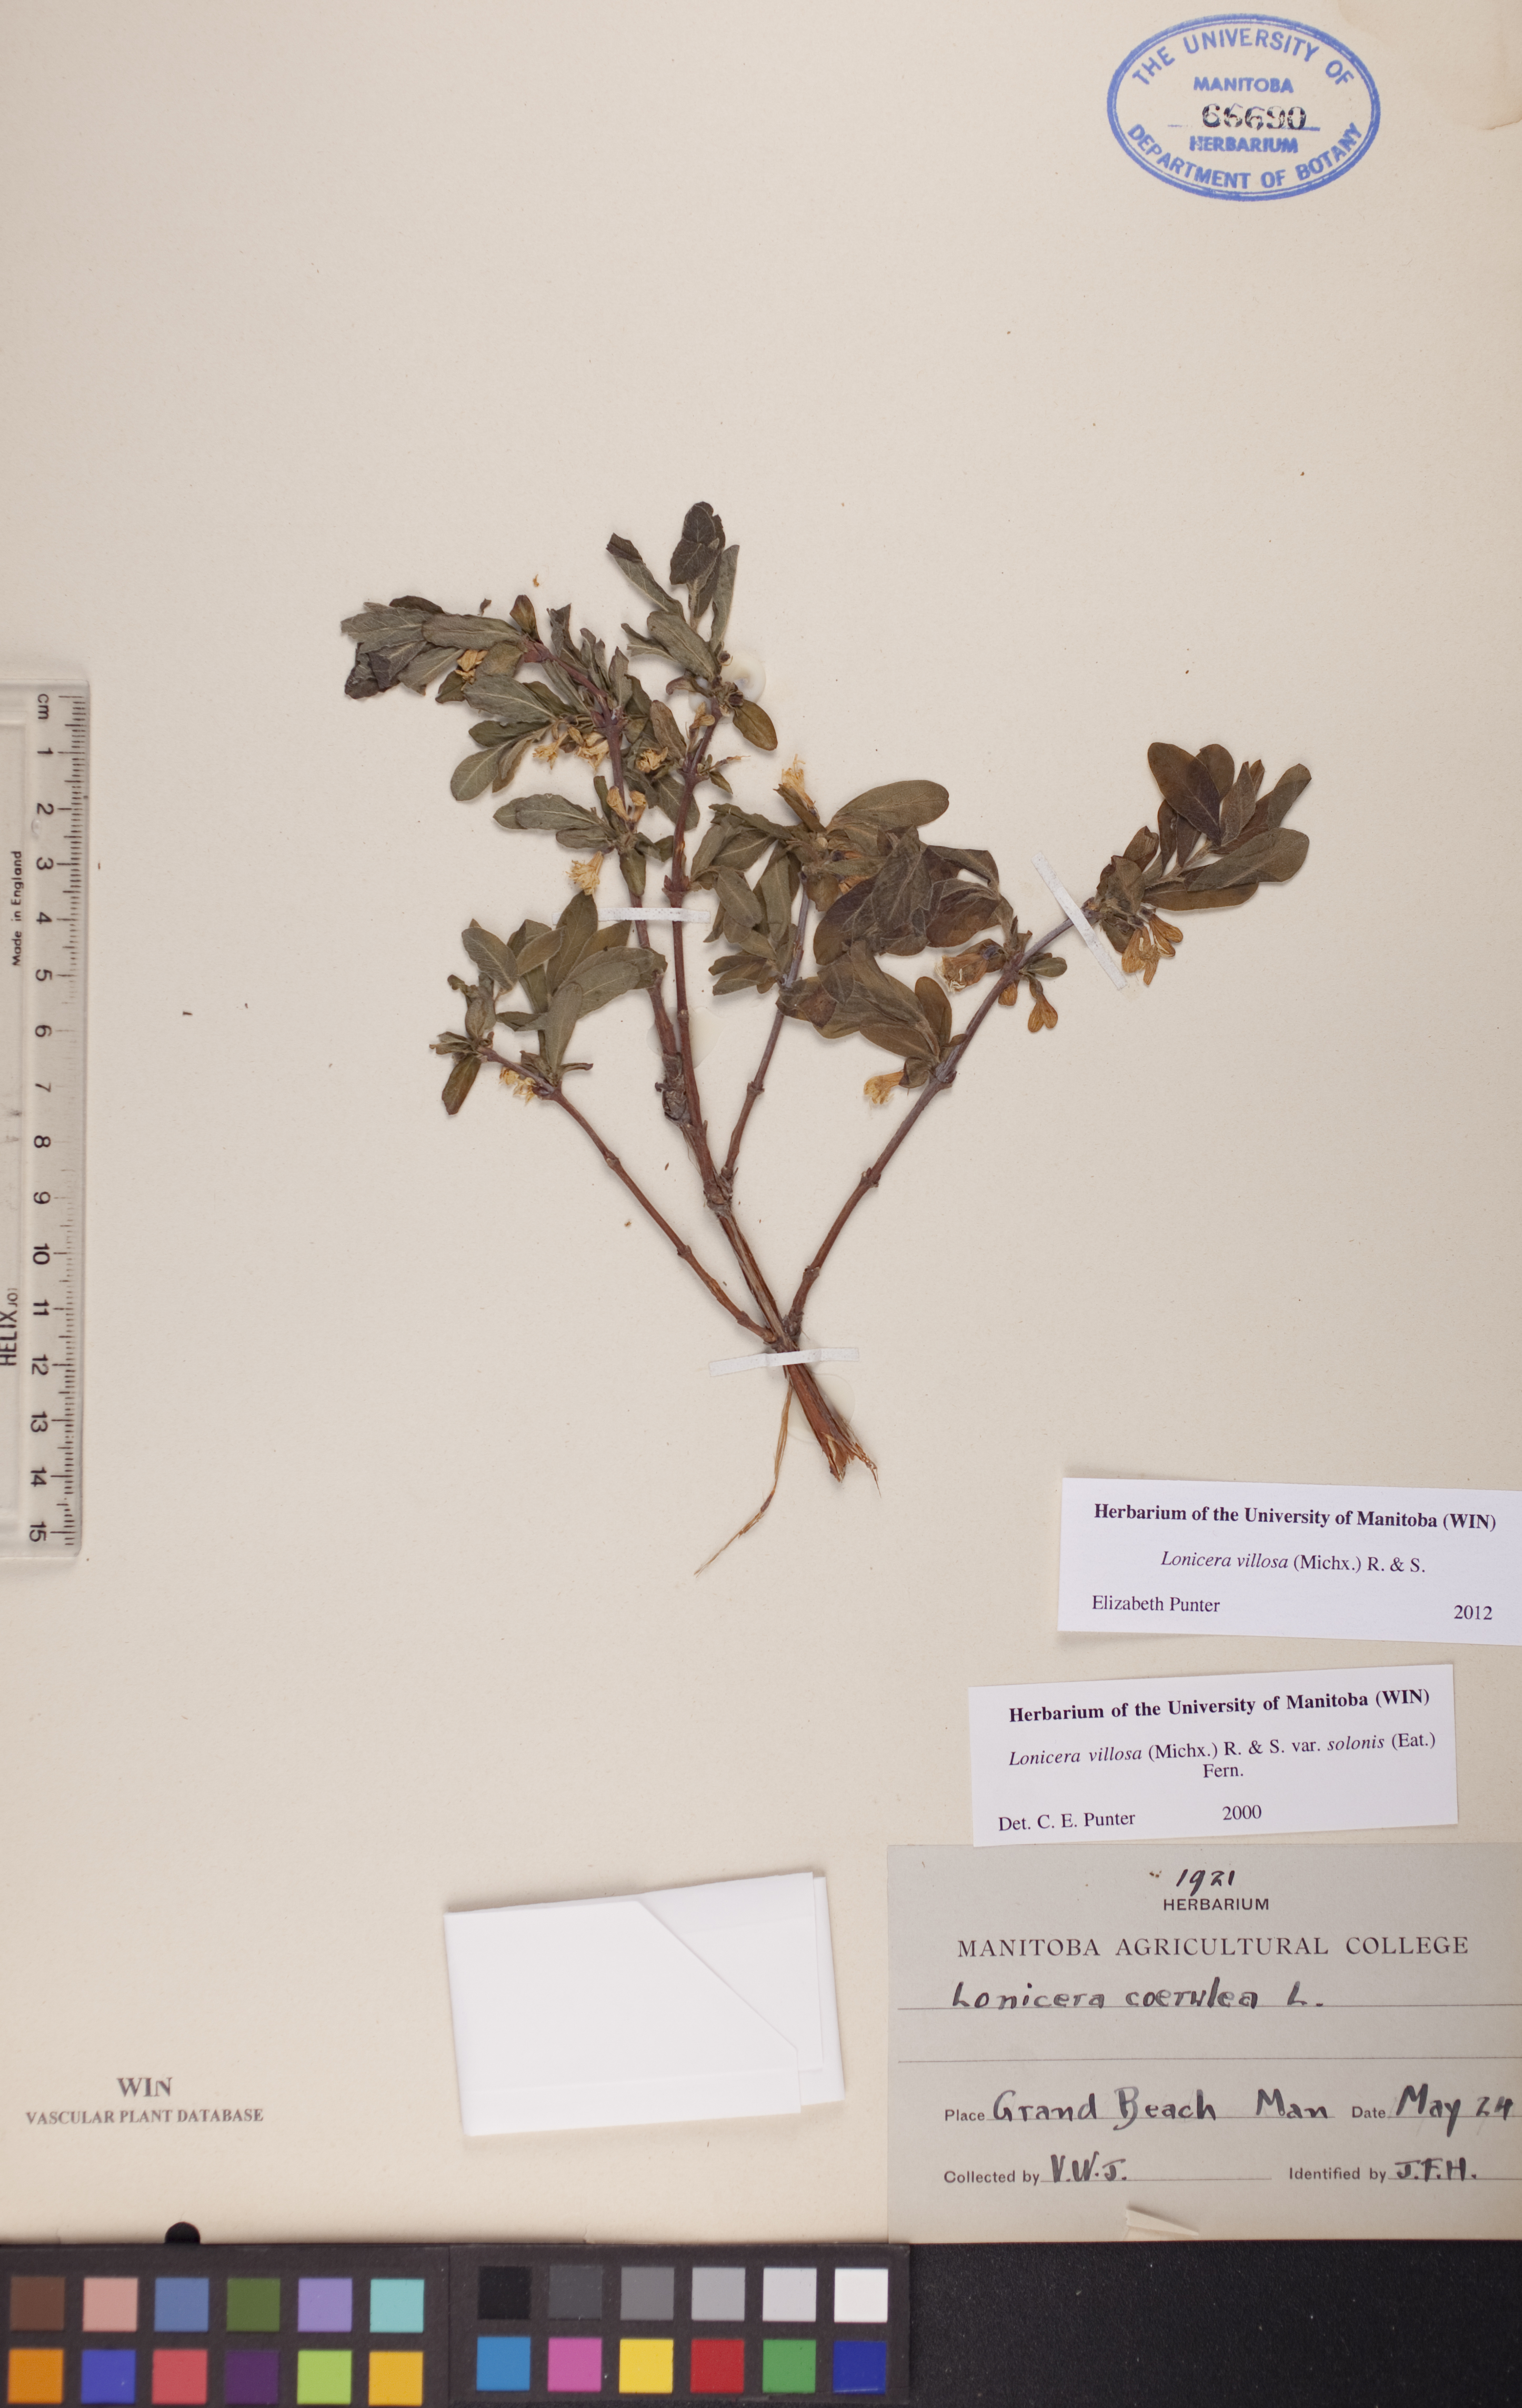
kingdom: Plantae
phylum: Tracheophyta
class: Magnoliopsida
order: Dipsacales
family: Caprifoliaceae
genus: Lonicera
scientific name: Lonicera villosa
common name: Mountain fly-honeysuckle
